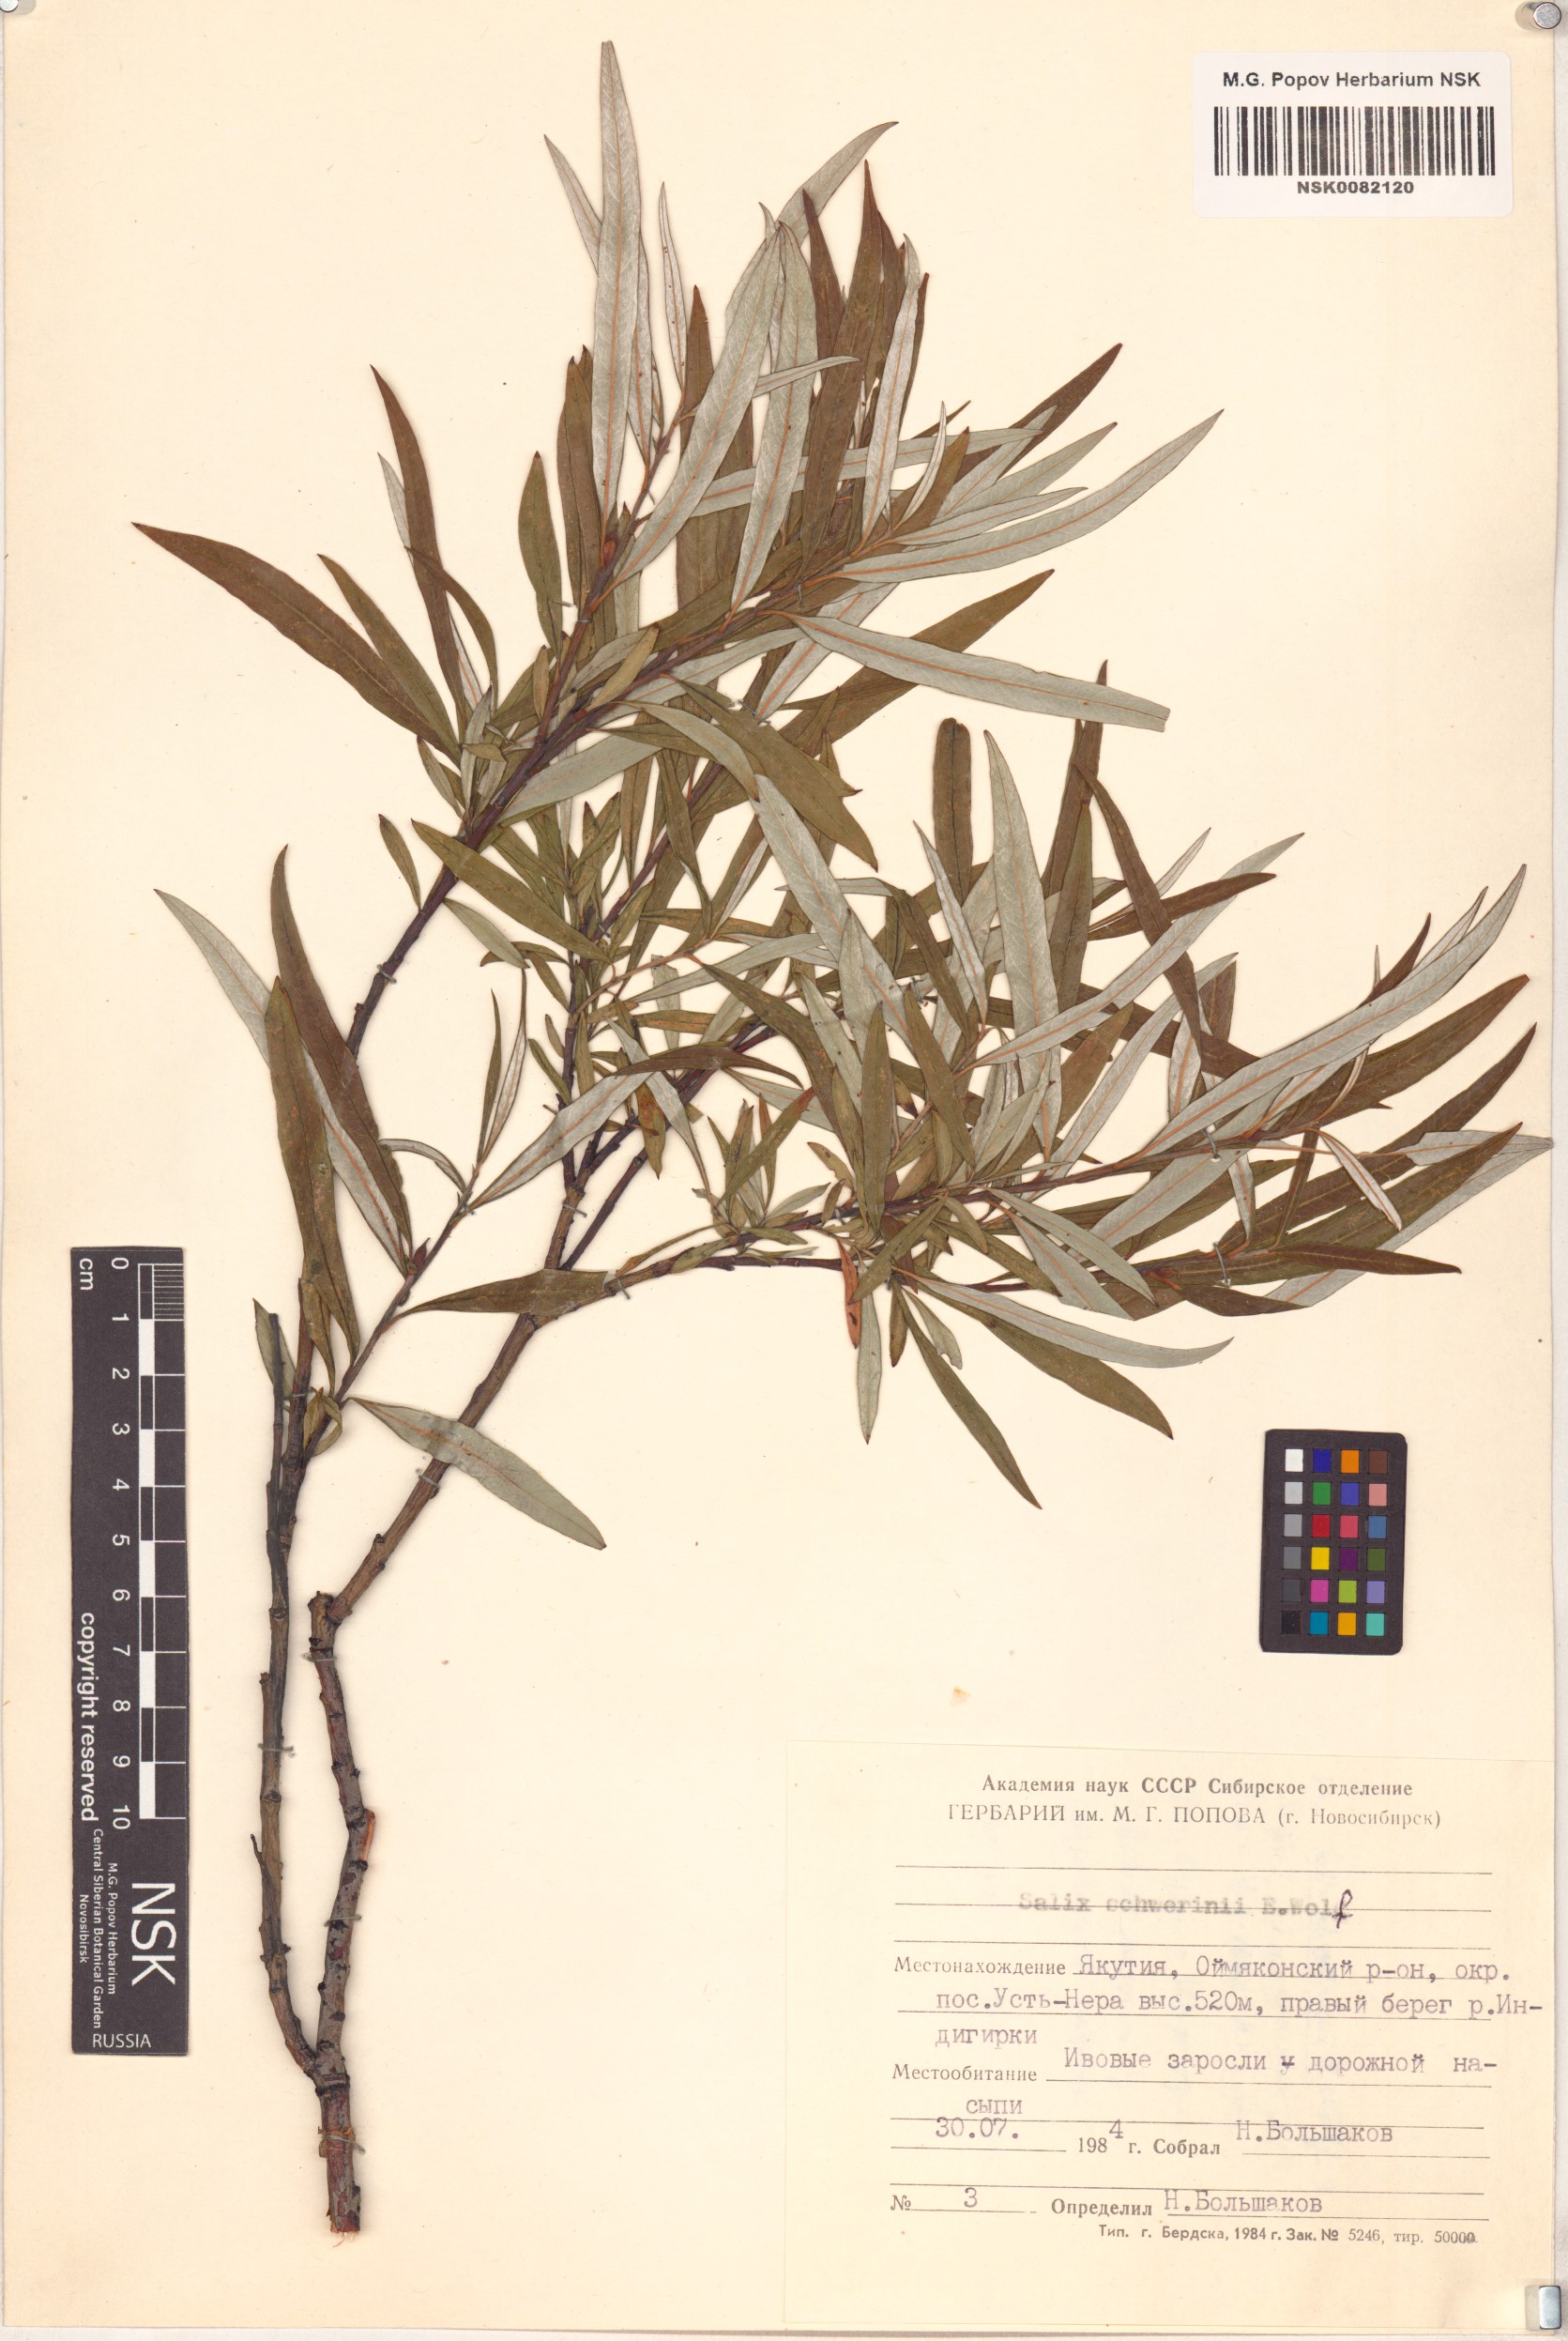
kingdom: Plantae
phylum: Tracheophyta
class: Magnoliopsida
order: Malpighiales
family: Salicaceae
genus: Salix
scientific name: Salix schwerinii
